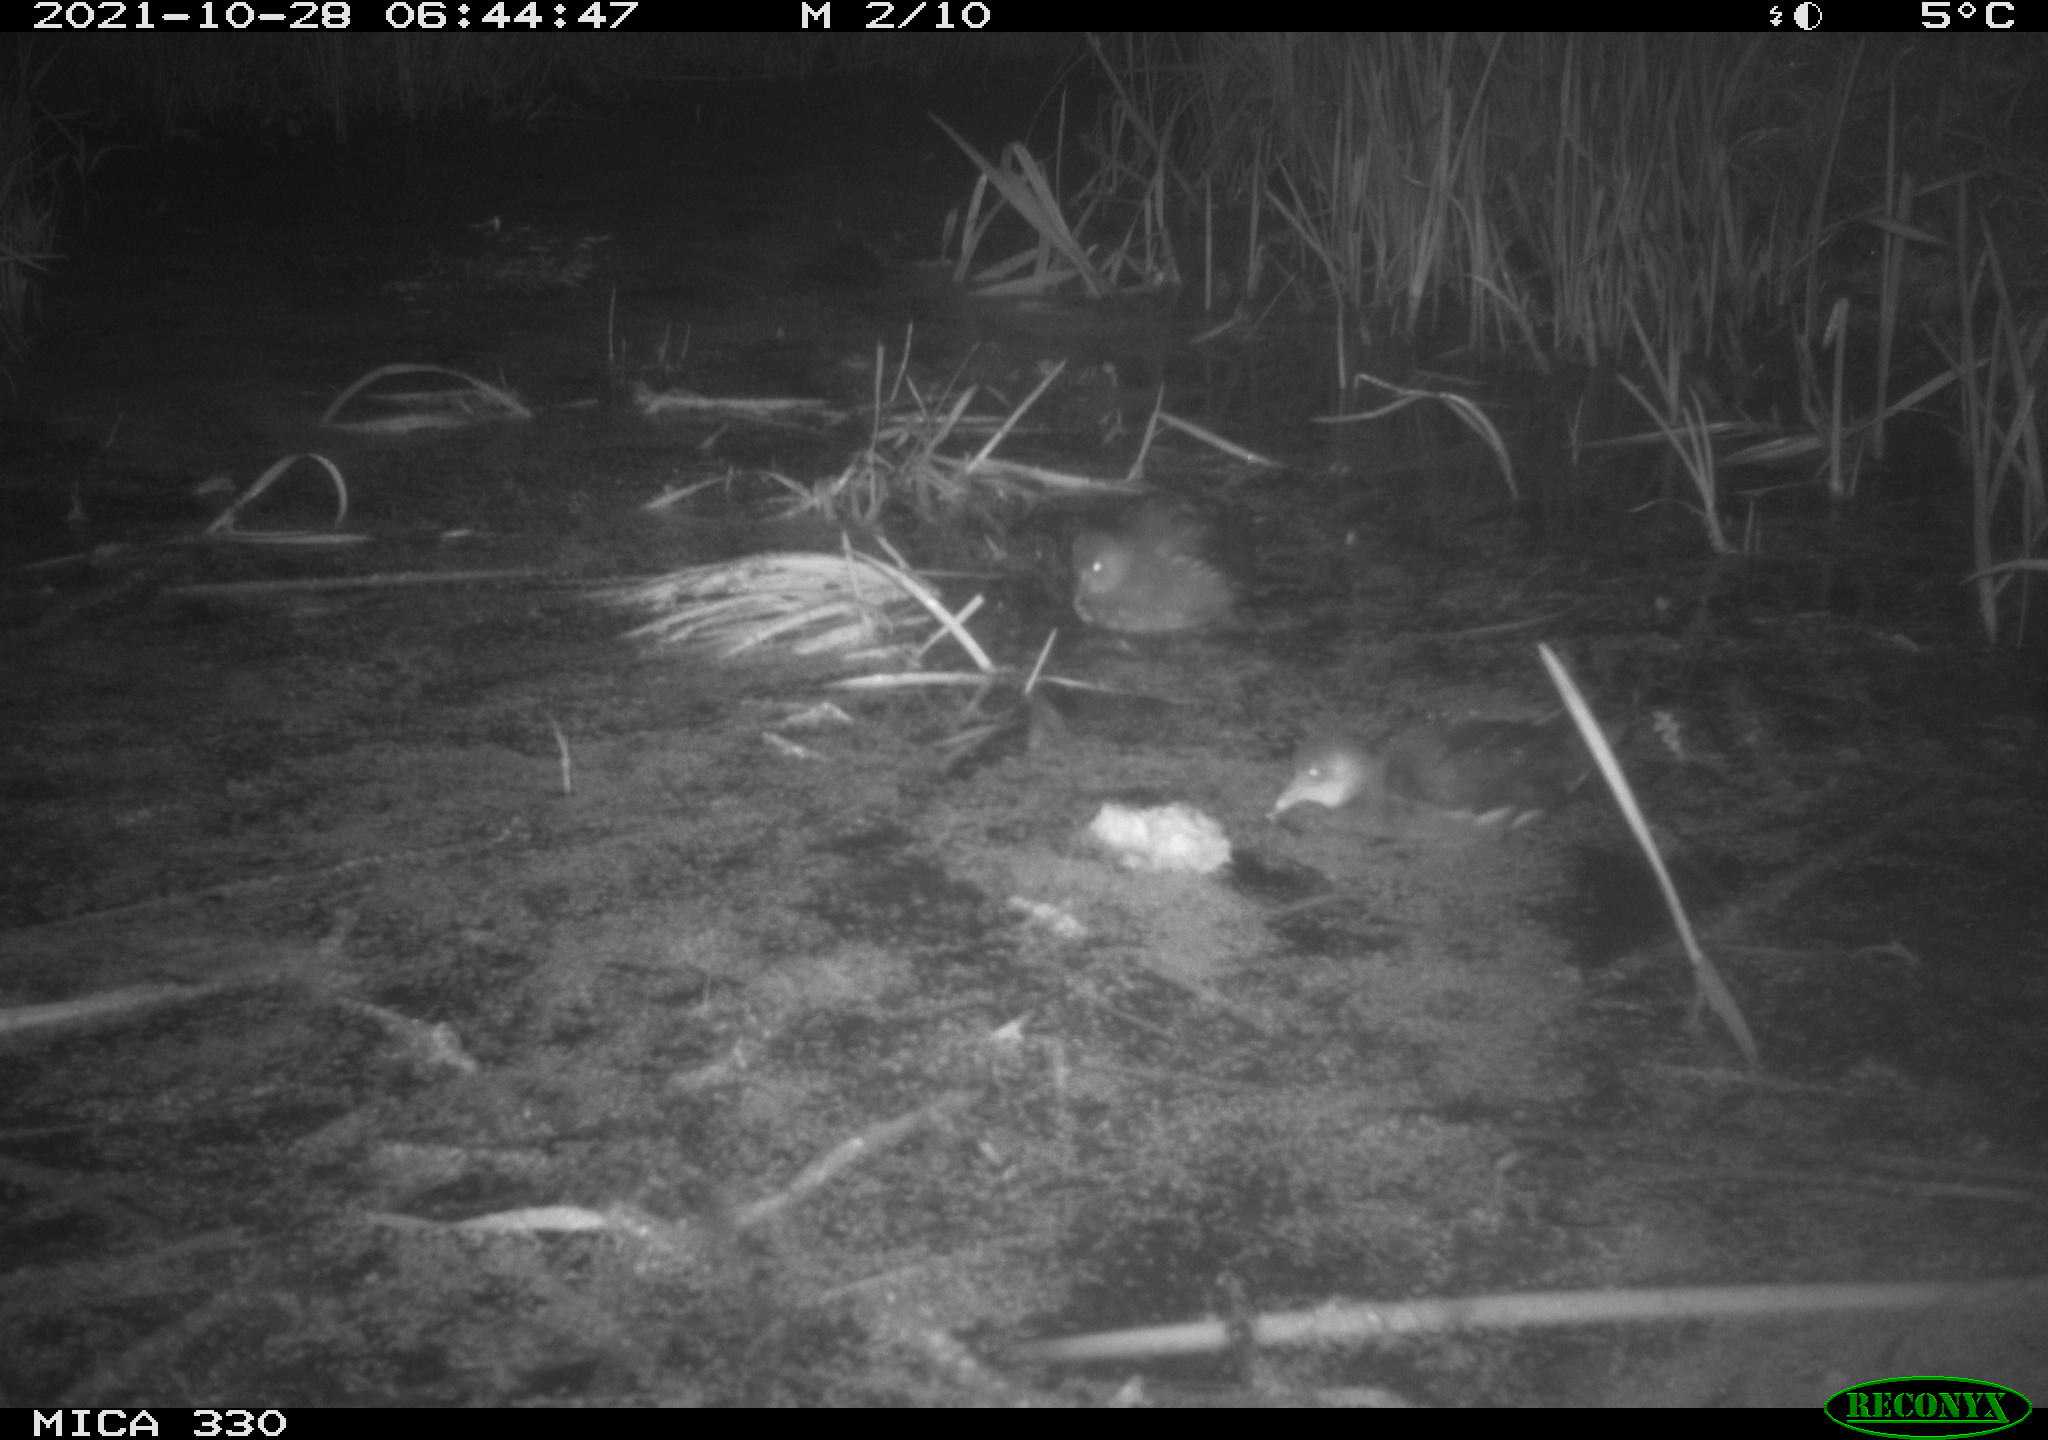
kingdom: Animalia
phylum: Chordata
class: Aves
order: Gruiformes
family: Rallidae
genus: Gallinula
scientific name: Gallinula chloropus
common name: Common moorhen
